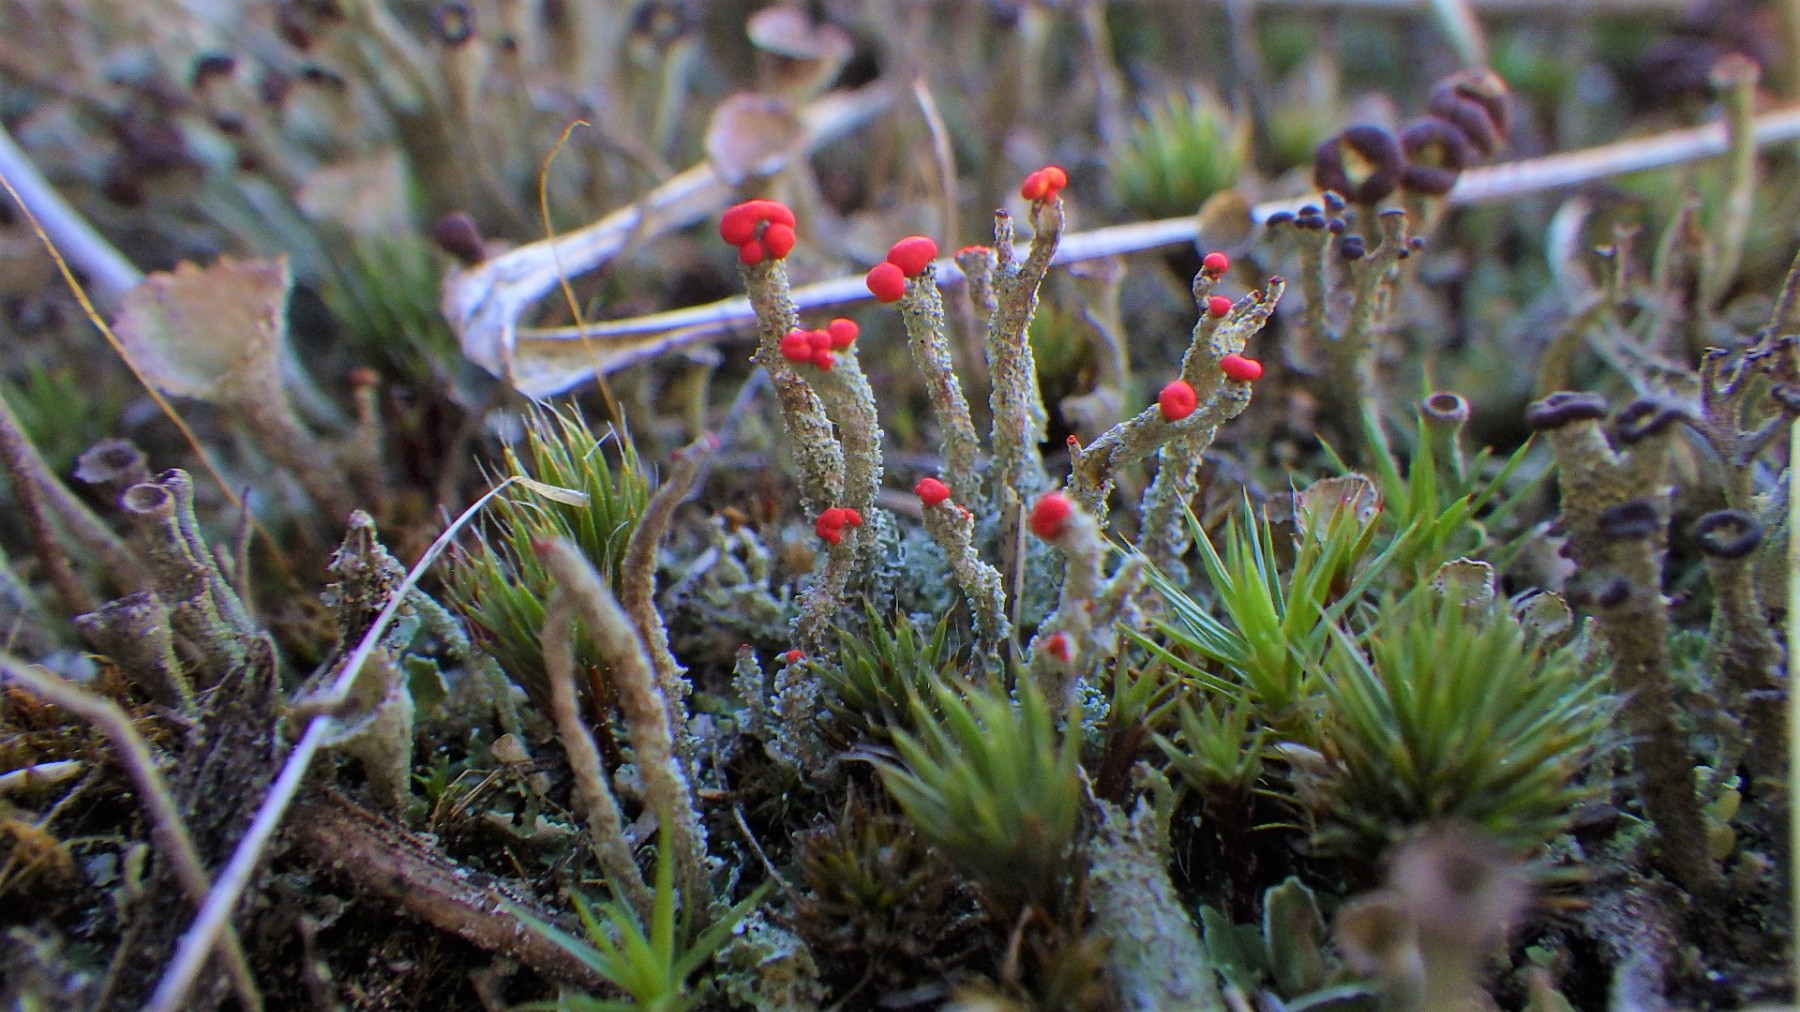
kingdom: Fungi
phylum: Ascomycota
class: Lecanoromycetes
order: Lecanorales
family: Cladoniaceae
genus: Cladonia
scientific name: Cladonia floerkeana
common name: lakrød bægerlav
